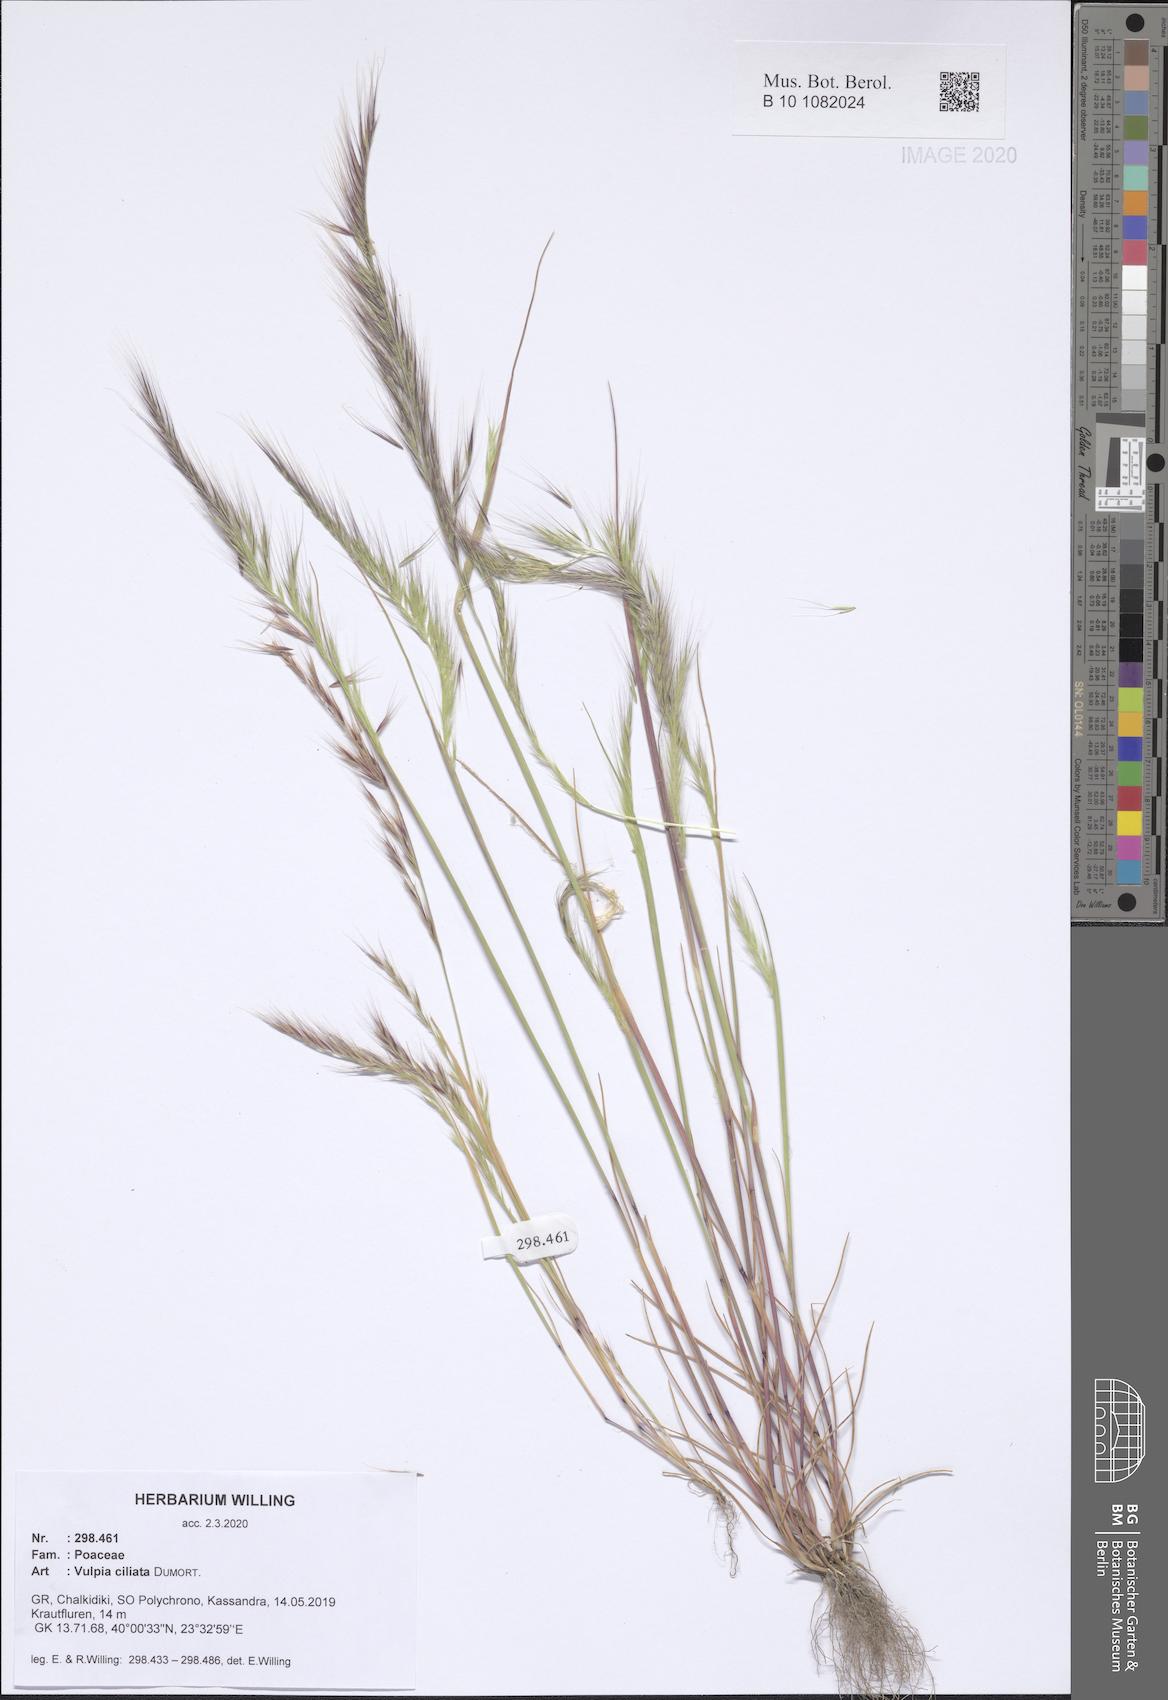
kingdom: Plantae
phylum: Tracheophyta
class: Liliopsida
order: Poales
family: Poaceae
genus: Festuca
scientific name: Festuca ambigua
